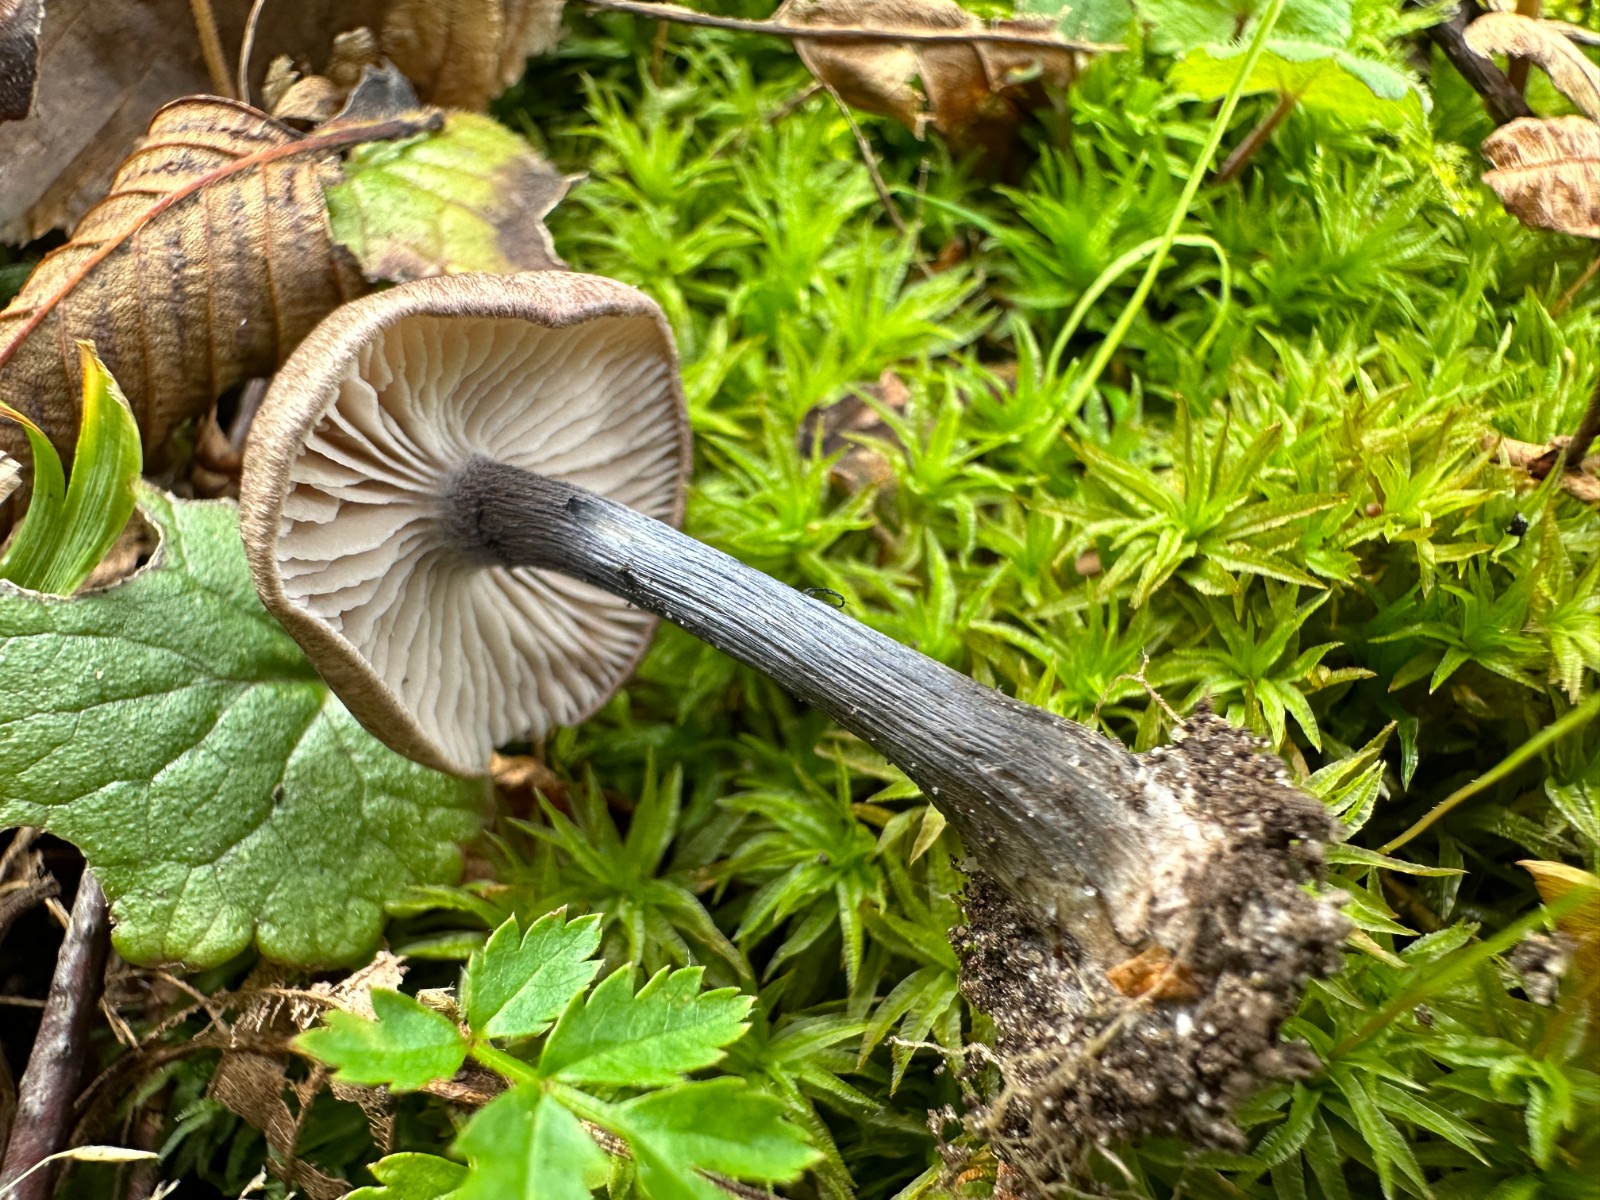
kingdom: Fungi
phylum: Basidiomycota
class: Agaricomycetes
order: Agaricales
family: Entolomataceae
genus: Entoloma
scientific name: Entoloma
